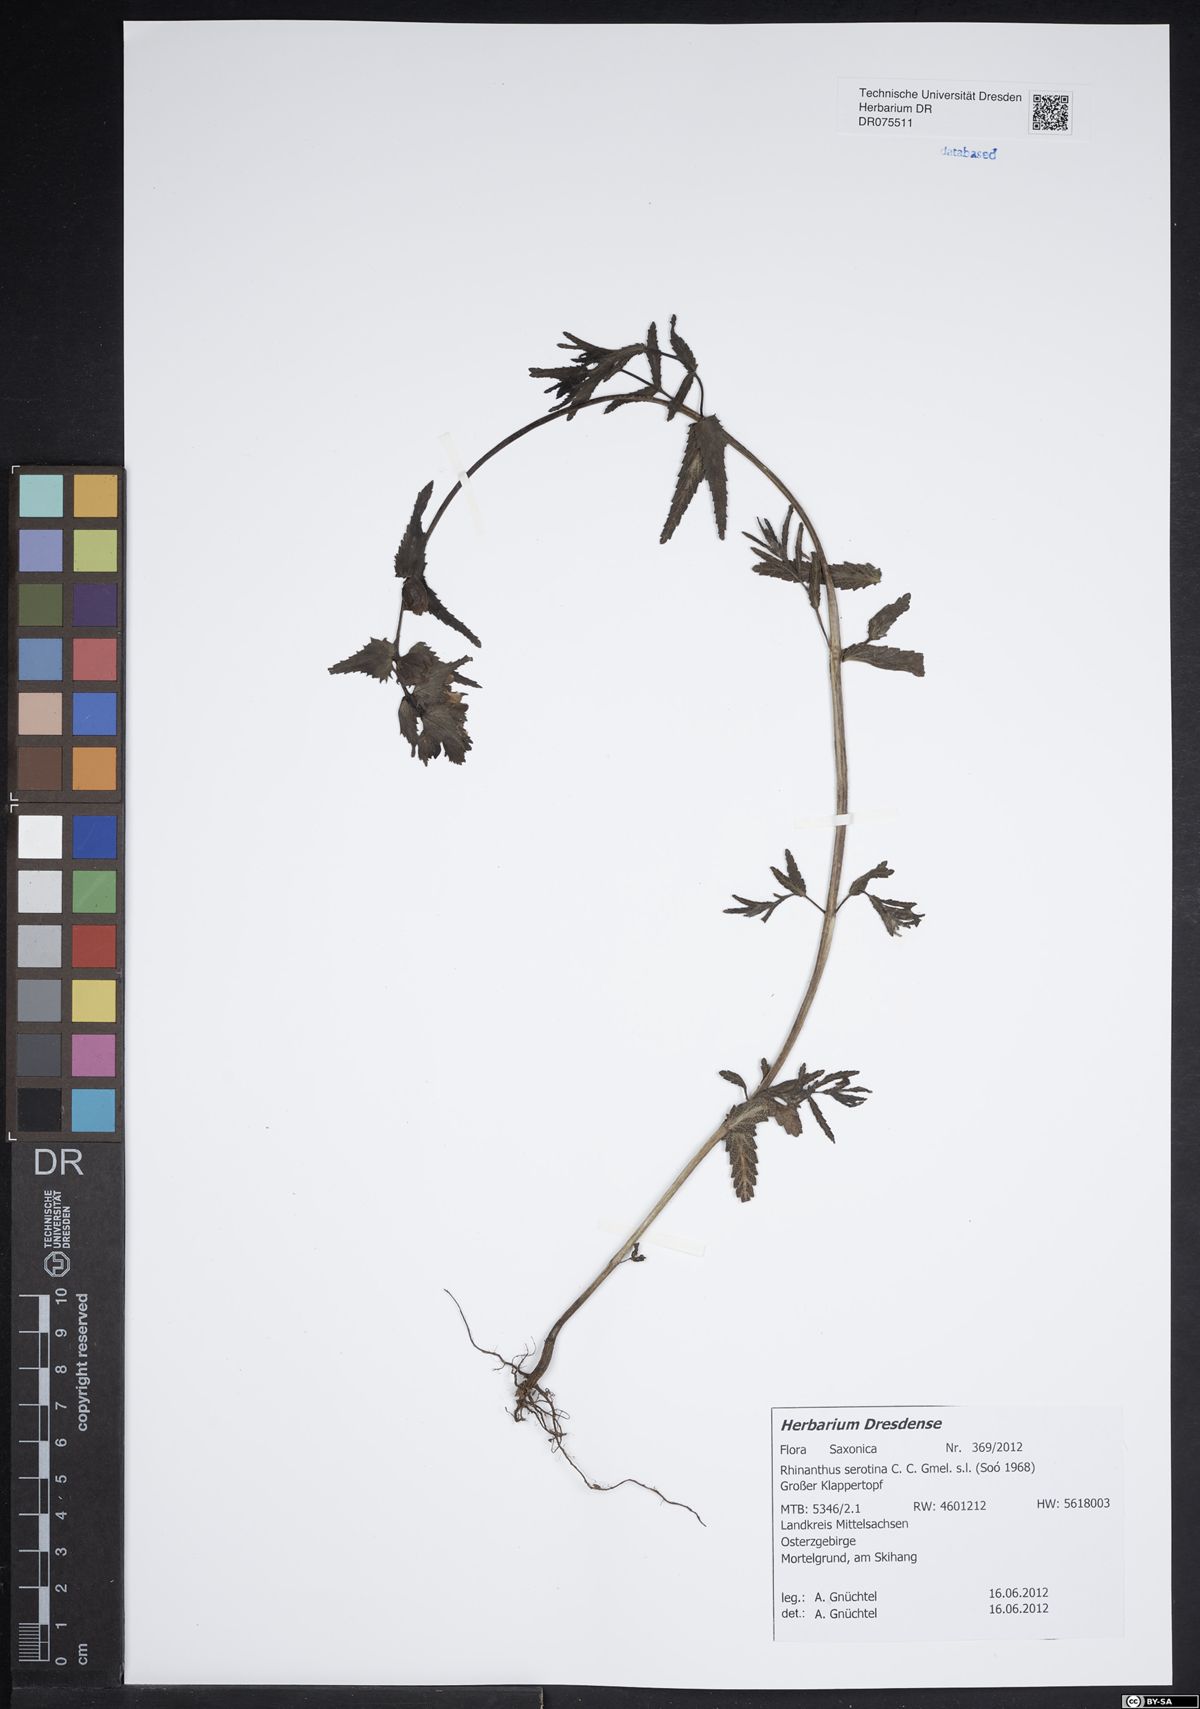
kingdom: Plantae
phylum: Tracheophyta
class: Magnoliopsida
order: Lamiales
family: Orobanchaceae
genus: Rhinanthus
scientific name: Rhinanthus serotinus
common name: Late-flowering yellow rattle
